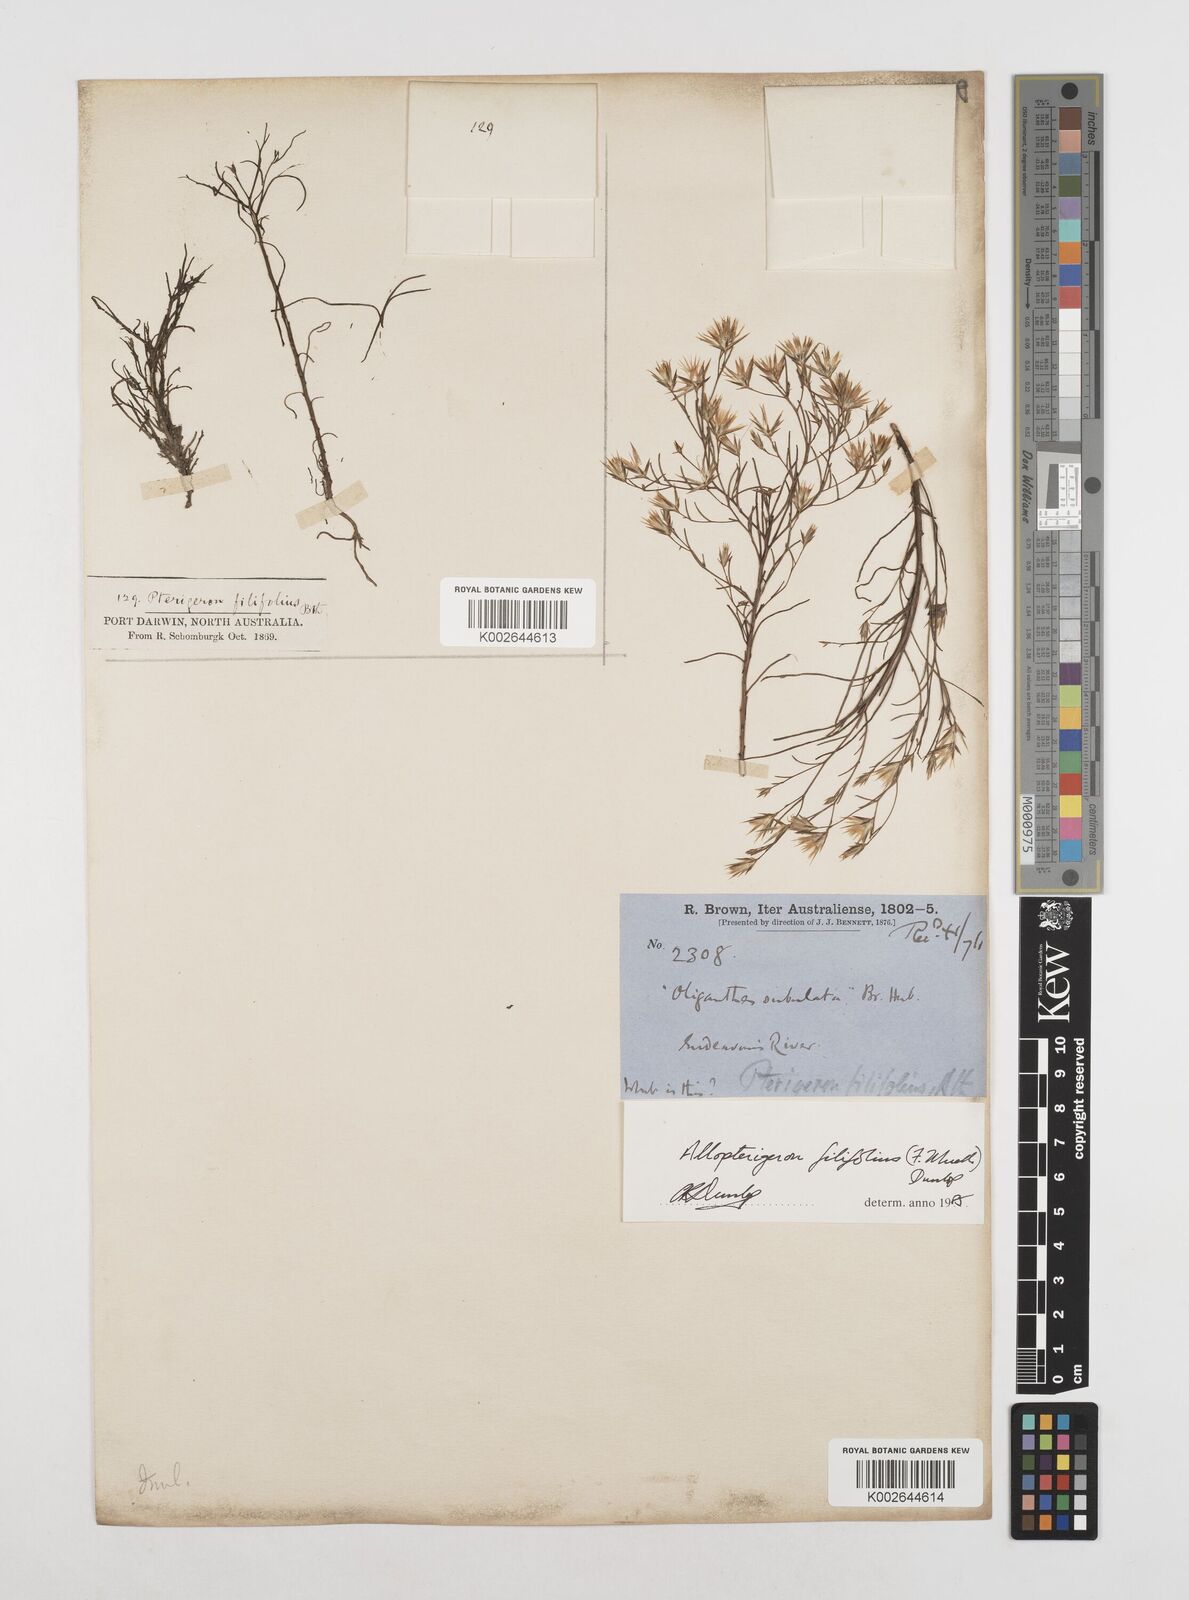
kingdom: Plantae
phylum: Tracheophyta
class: Magnoliopsida
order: Asterales
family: Asteraceae
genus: Allopterigeron
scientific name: Allopterigeron filifolius
